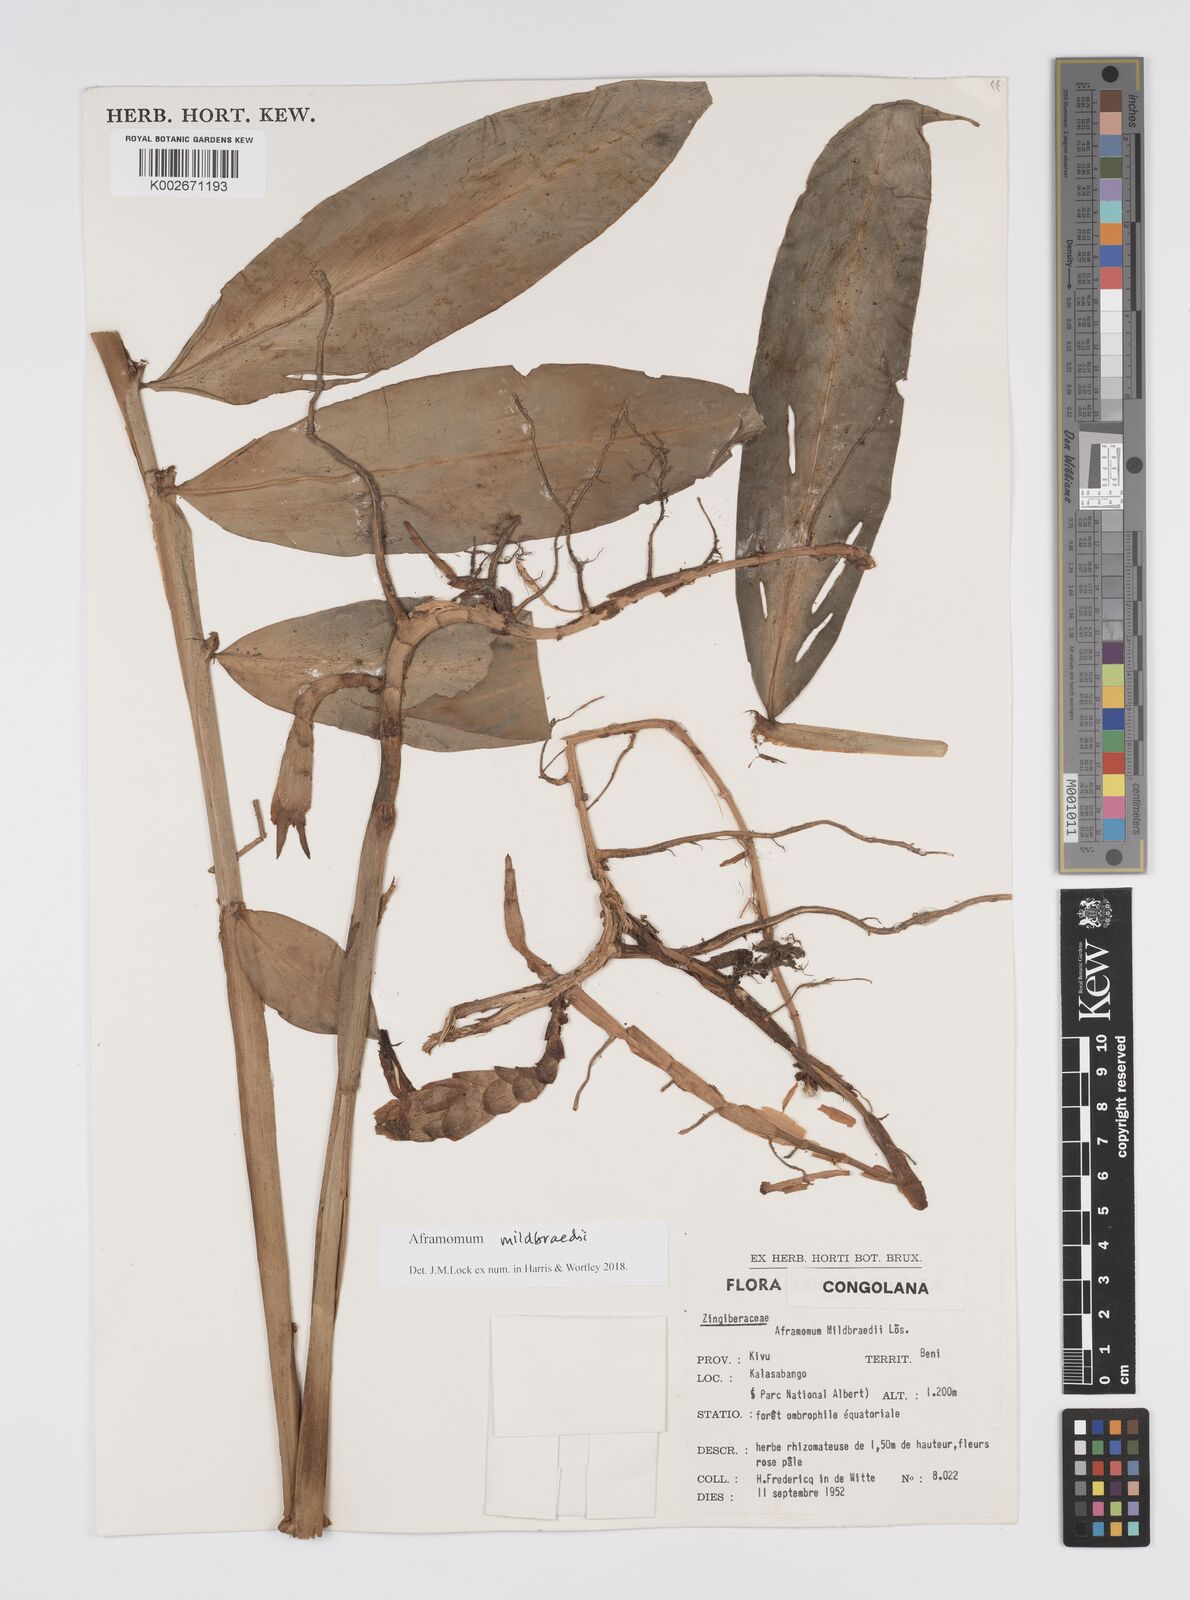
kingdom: Plantae
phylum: Tracheophyta
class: Liliopsida
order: Zingiberales
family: Zingiberaceae
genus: Aframomum
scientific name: Aframomum mildbraedii
